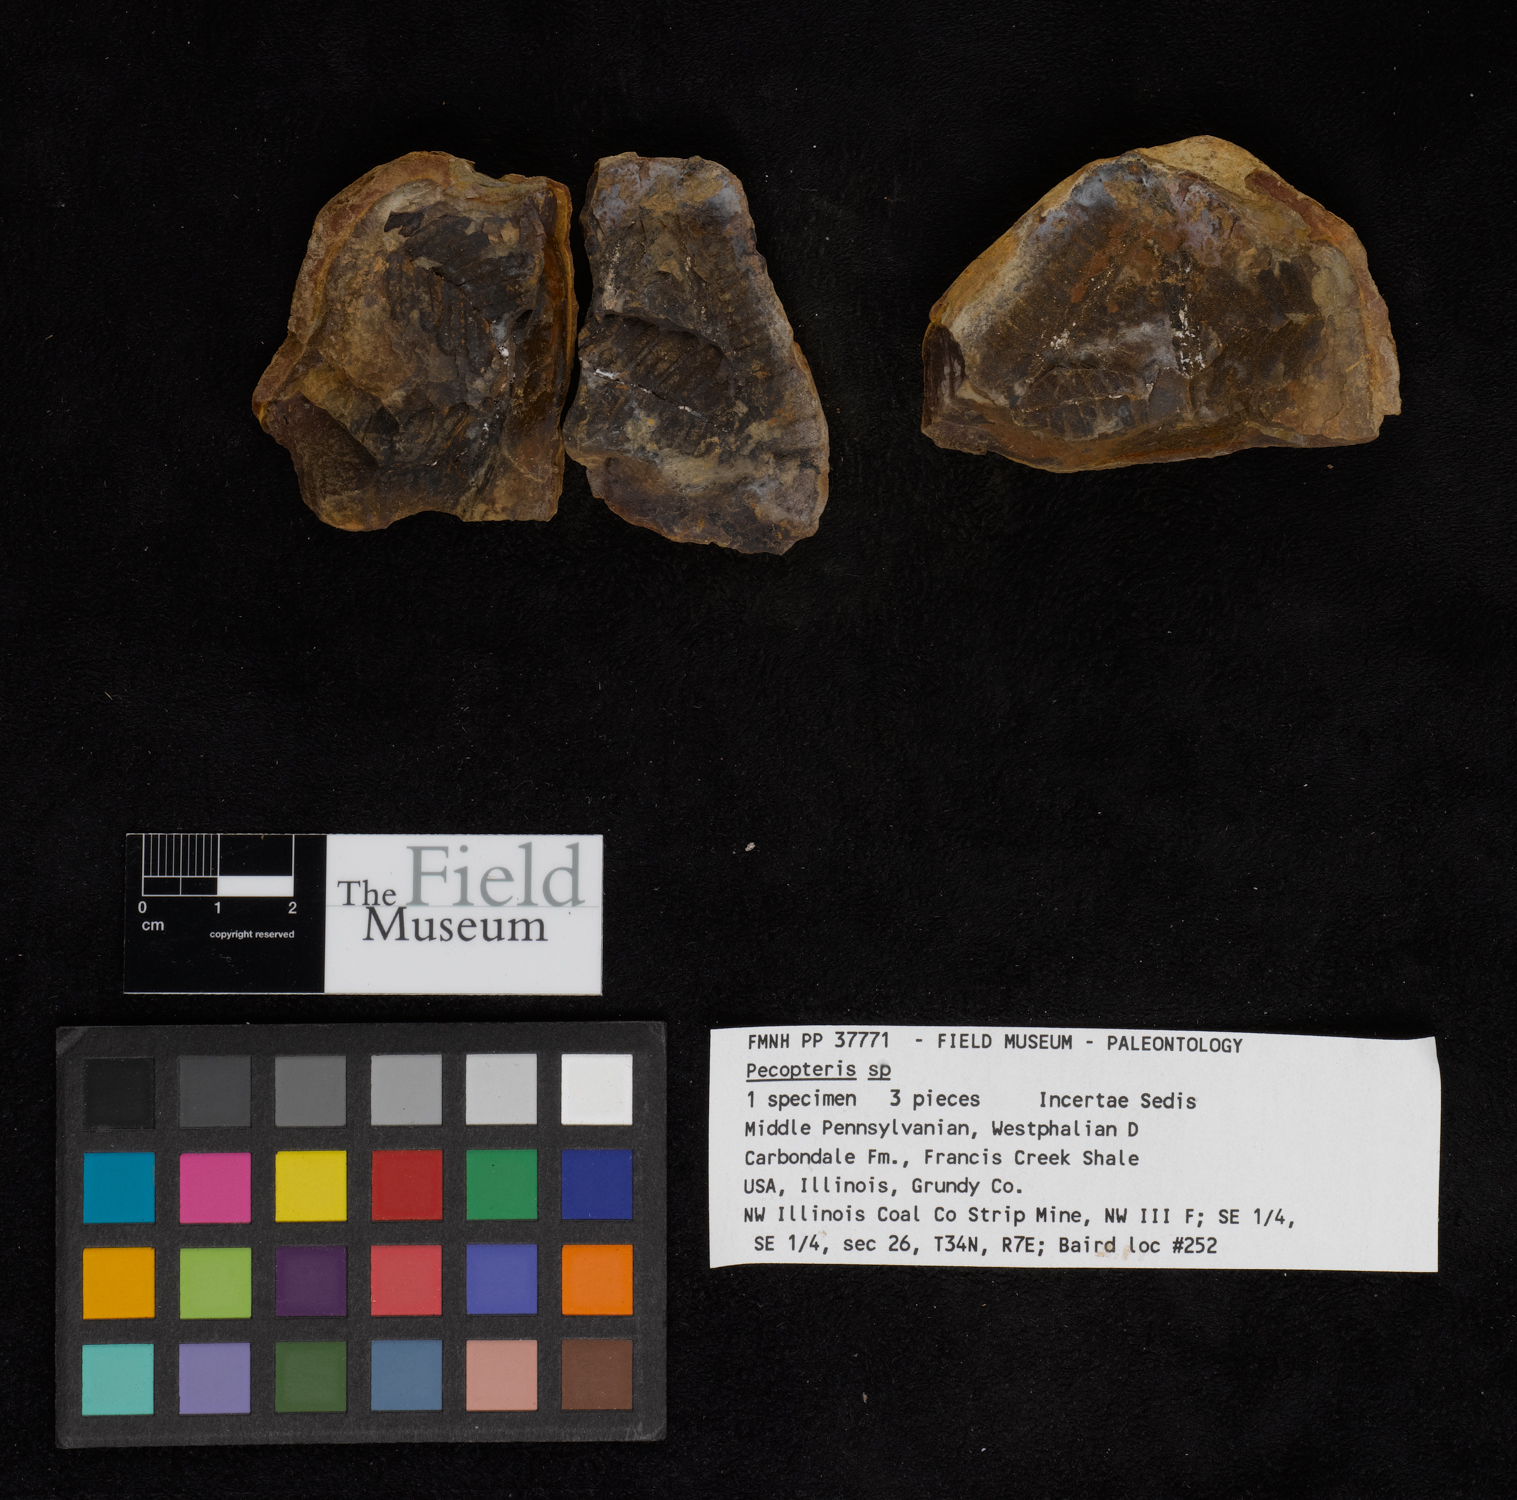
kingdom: Plantae
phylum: Tracheophyta
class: Polypodiopsida
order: Marattiales
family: Asterothecaceae
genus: Pecopteris
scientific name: Pecopteris
